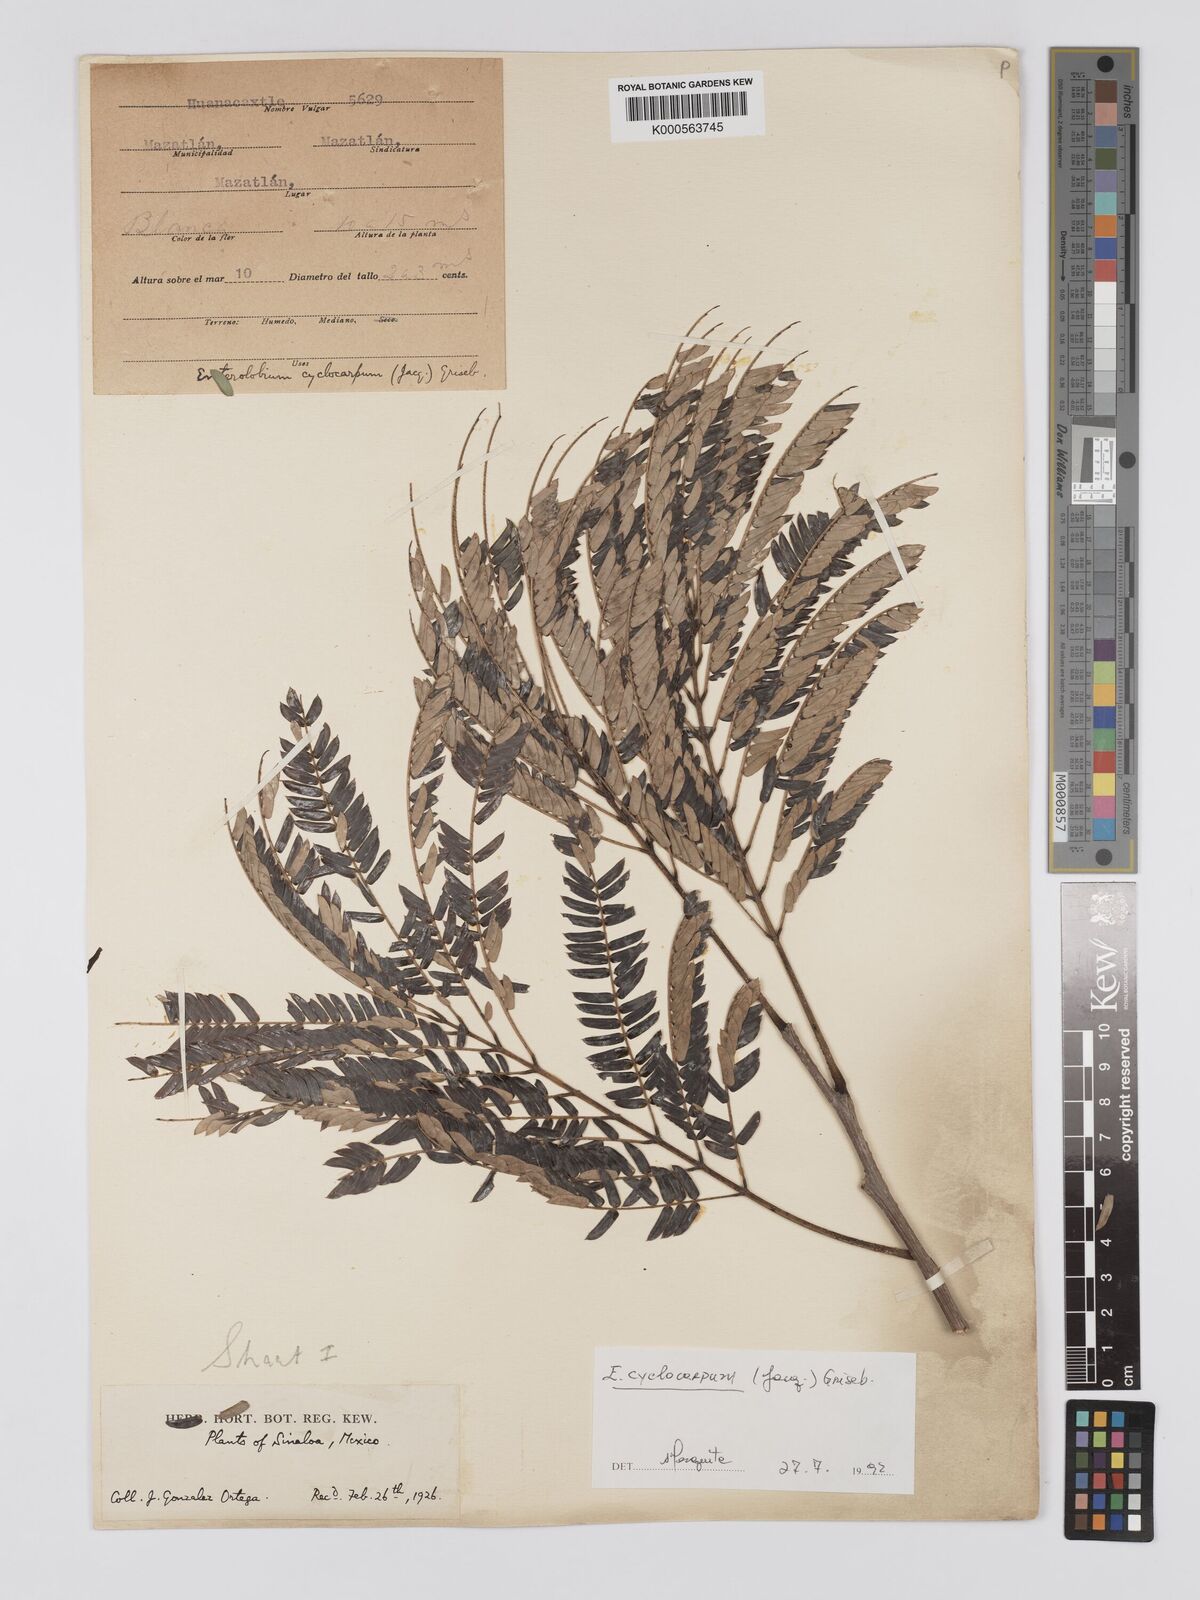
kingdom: Plantae
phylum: Tracheophyta
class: Magnoliopsida
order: Fabales
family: Fabaceae
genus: Enterolobium
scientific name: Enterolobium cyclocarpum
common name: Ear tree
